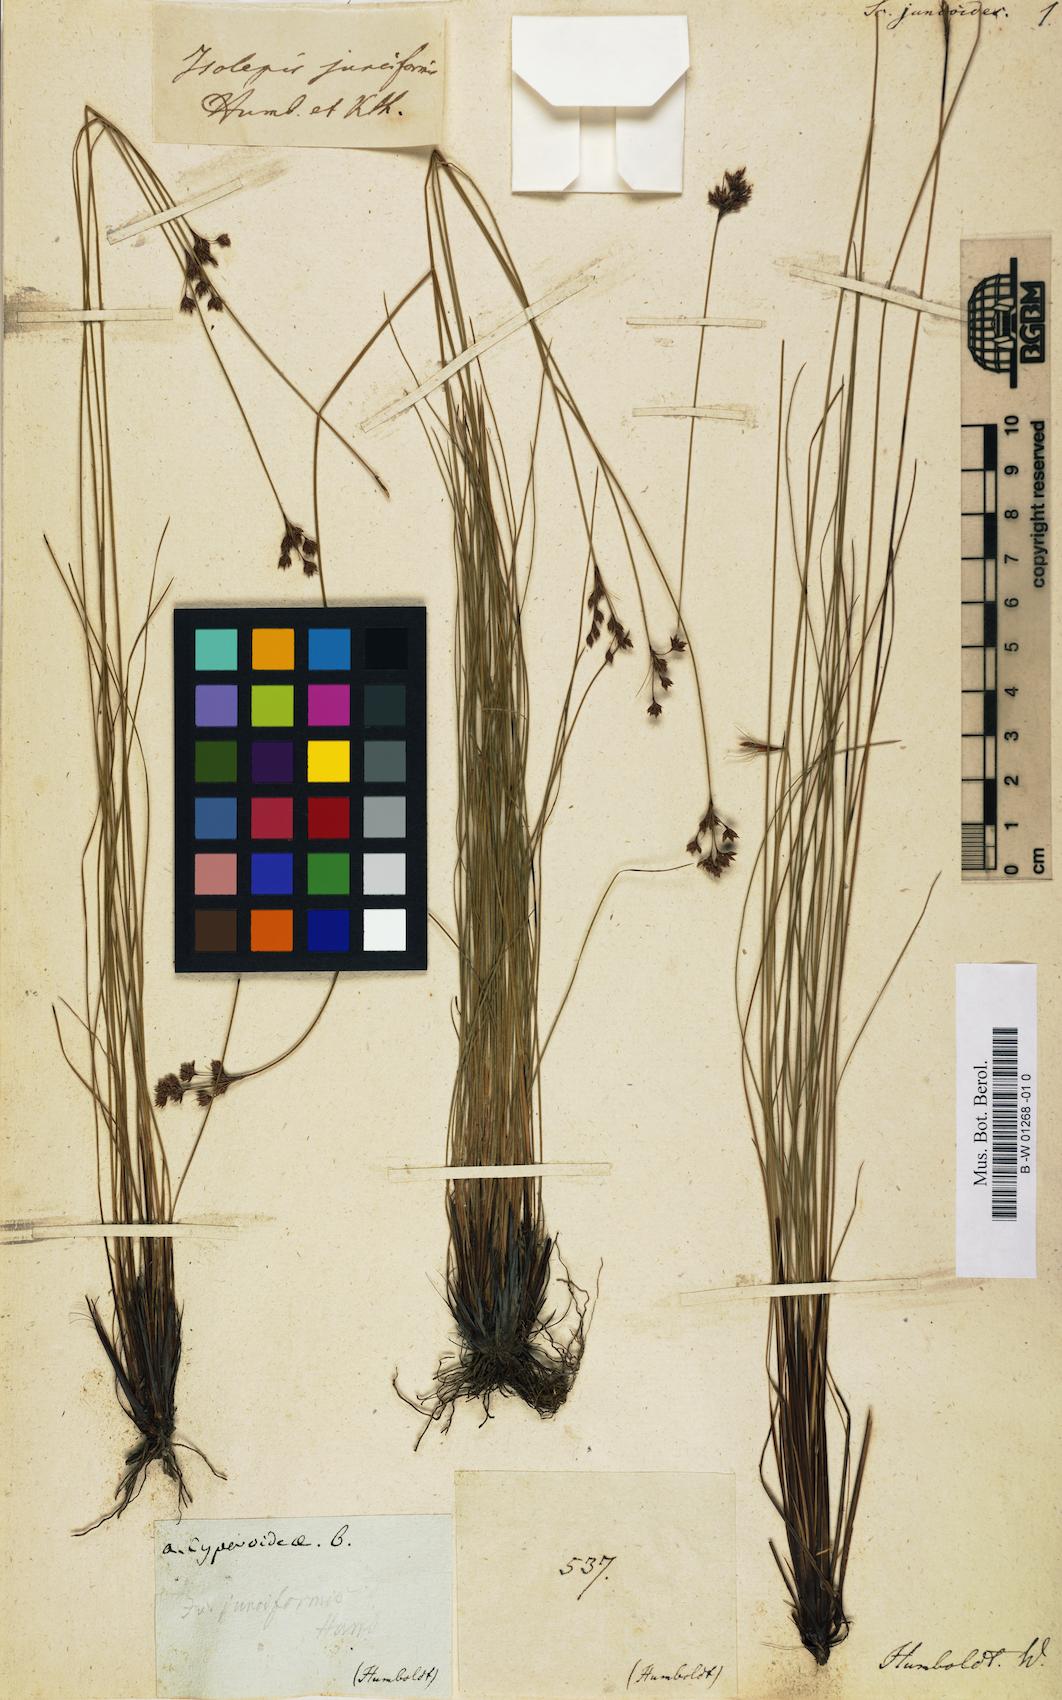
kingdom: Plantae
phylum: Tracheophyta
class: Liliopsida
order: Poales
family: Cyperaceae
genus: Bulbostylis
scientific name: Bulbostylis junciformis
